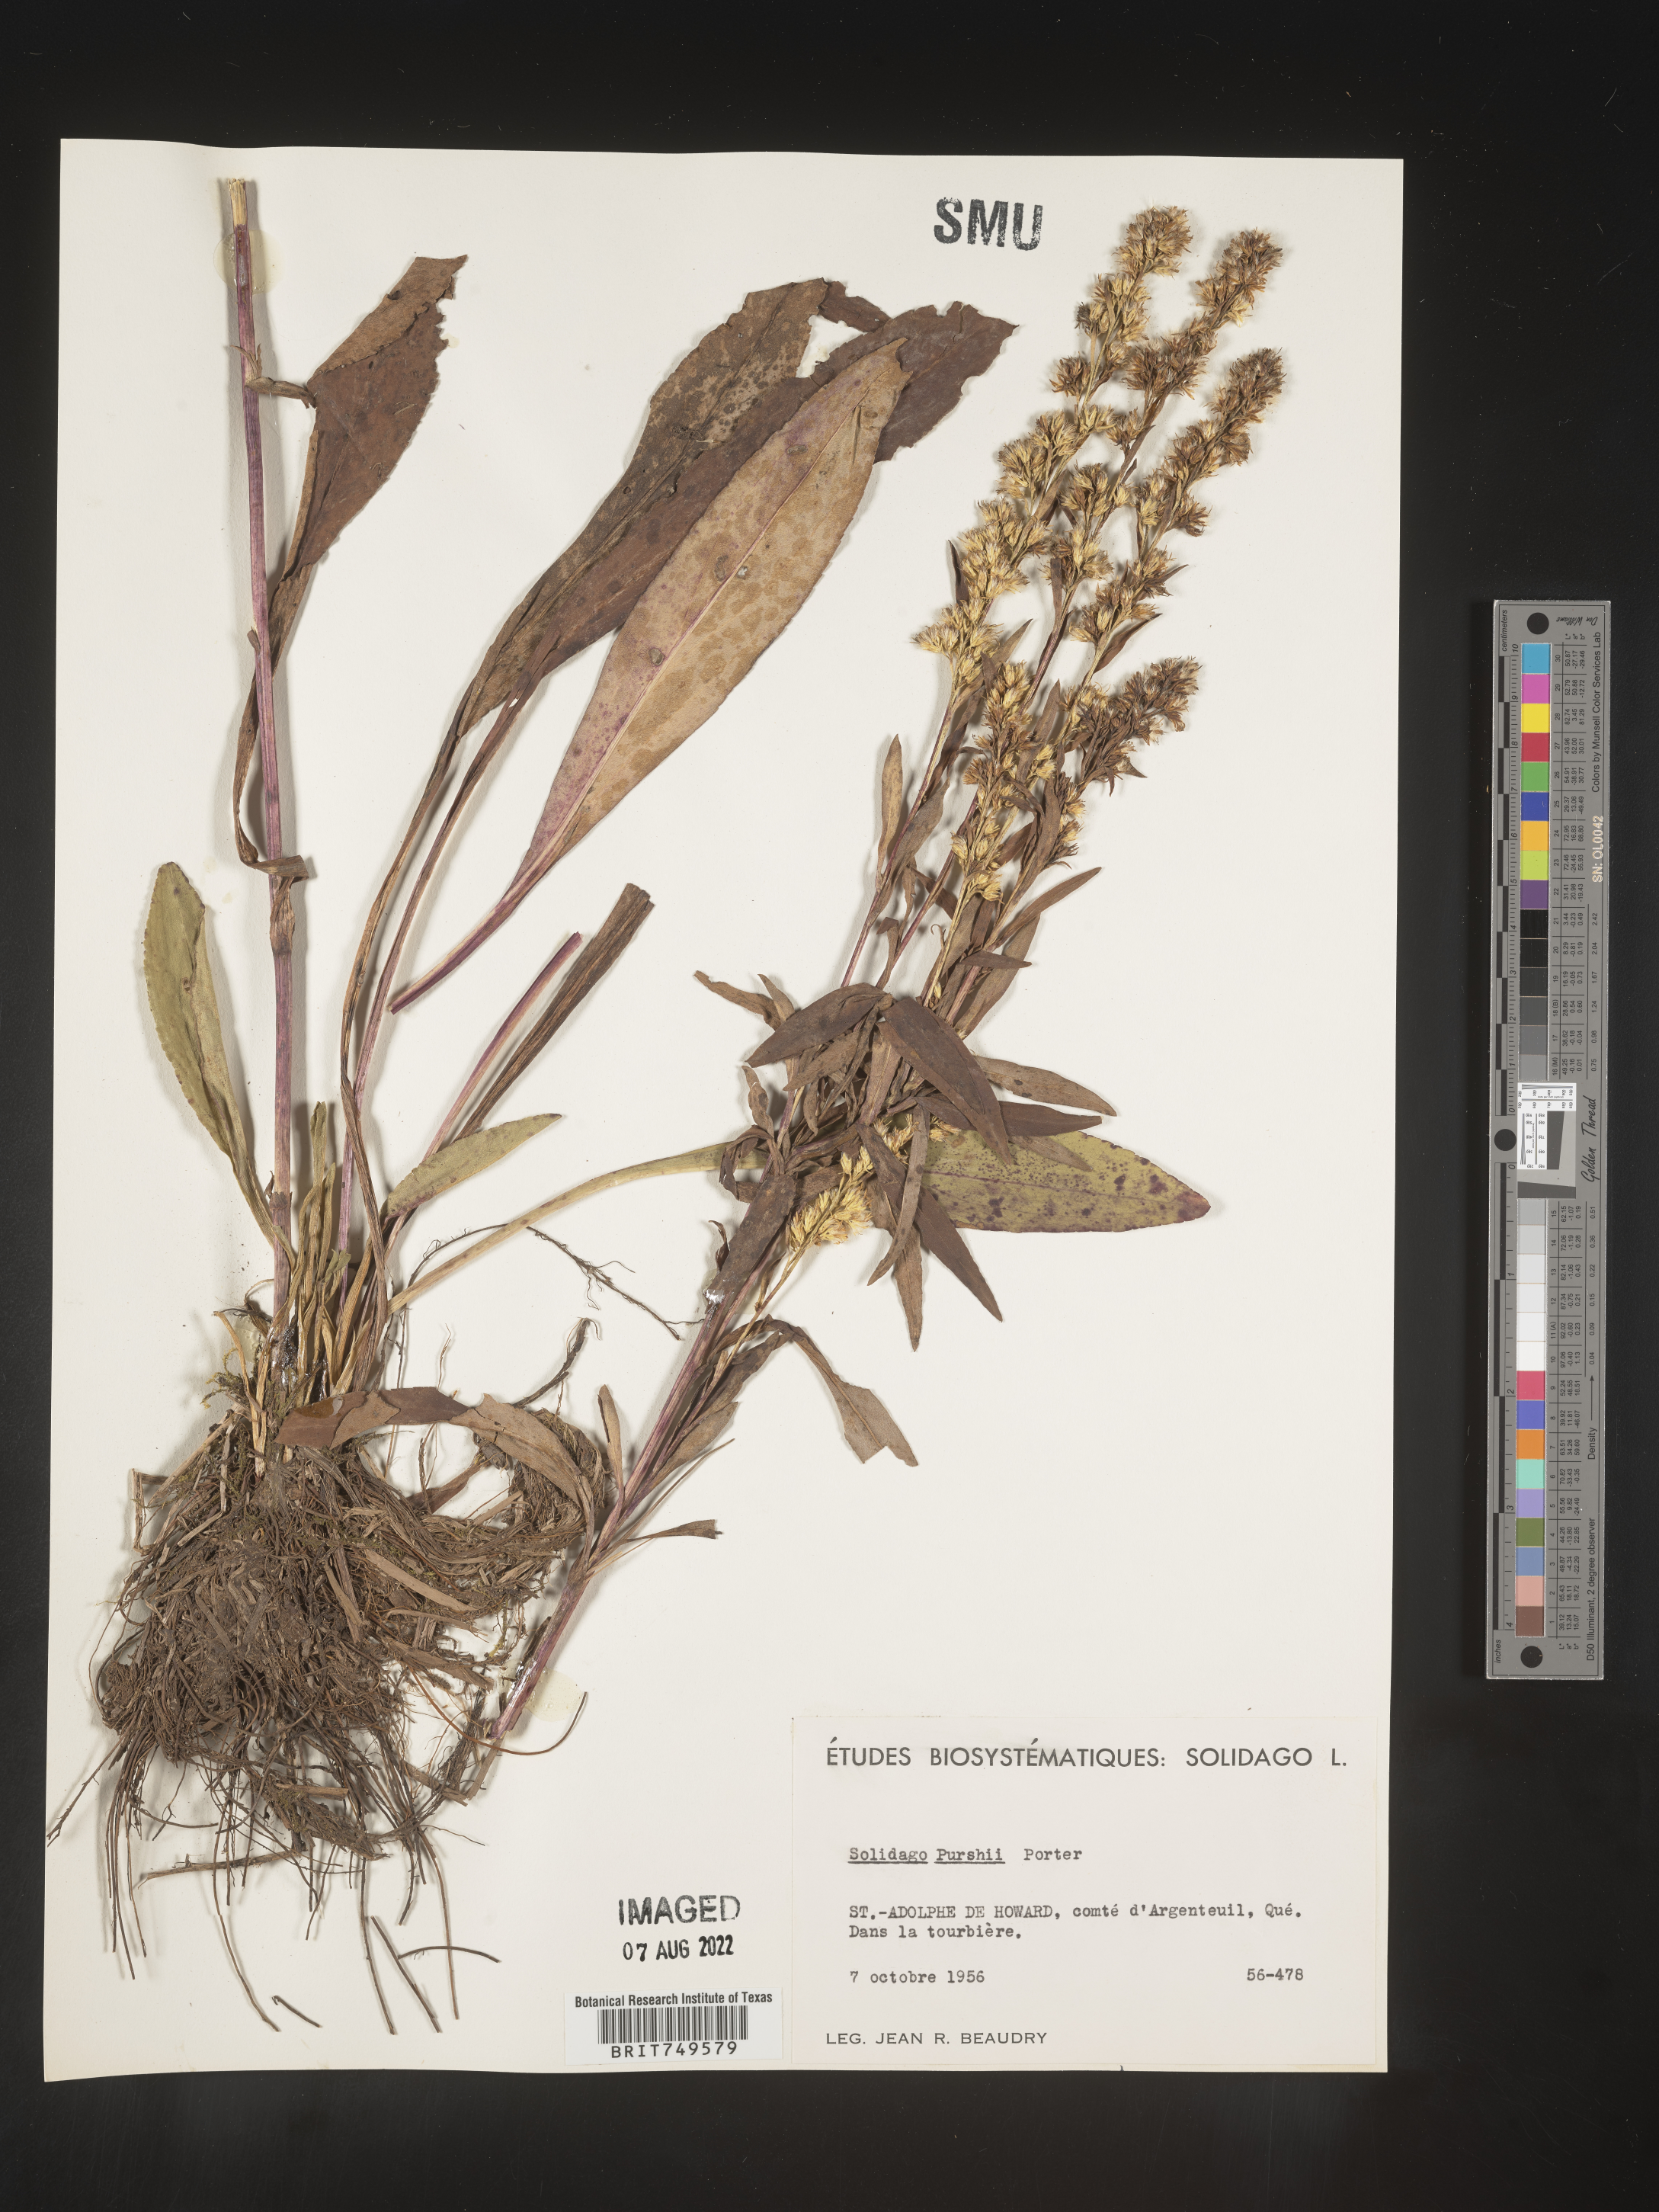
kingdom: Plantae
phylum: Tracheophyta
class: Magnoliopsida
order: Asterales
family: Asteraceae
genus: Solidago
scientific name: Solidago uliginosa
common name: Bog goldenrod
